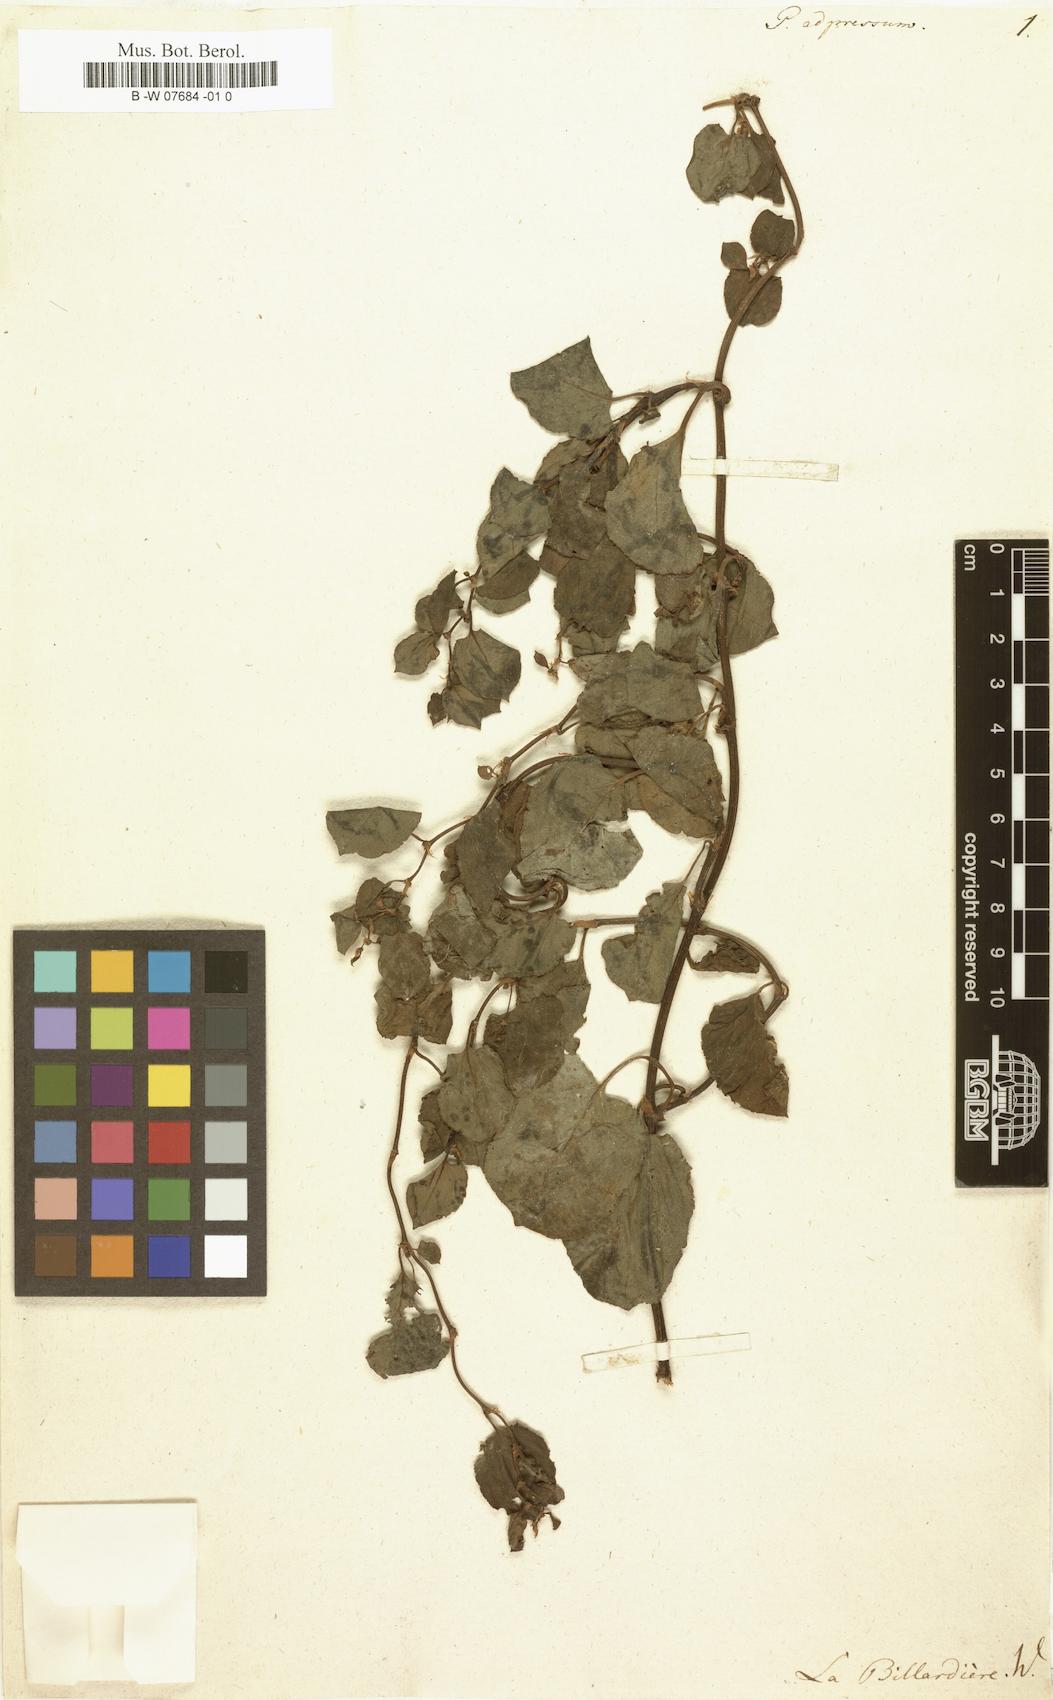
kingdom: Plantae
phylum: Tracheophyta
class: Magnoliopsida
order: Caryophyllales
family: Polygonaceae
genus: Muehlenbeckia
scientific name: Muehlenbeckia adpressa
